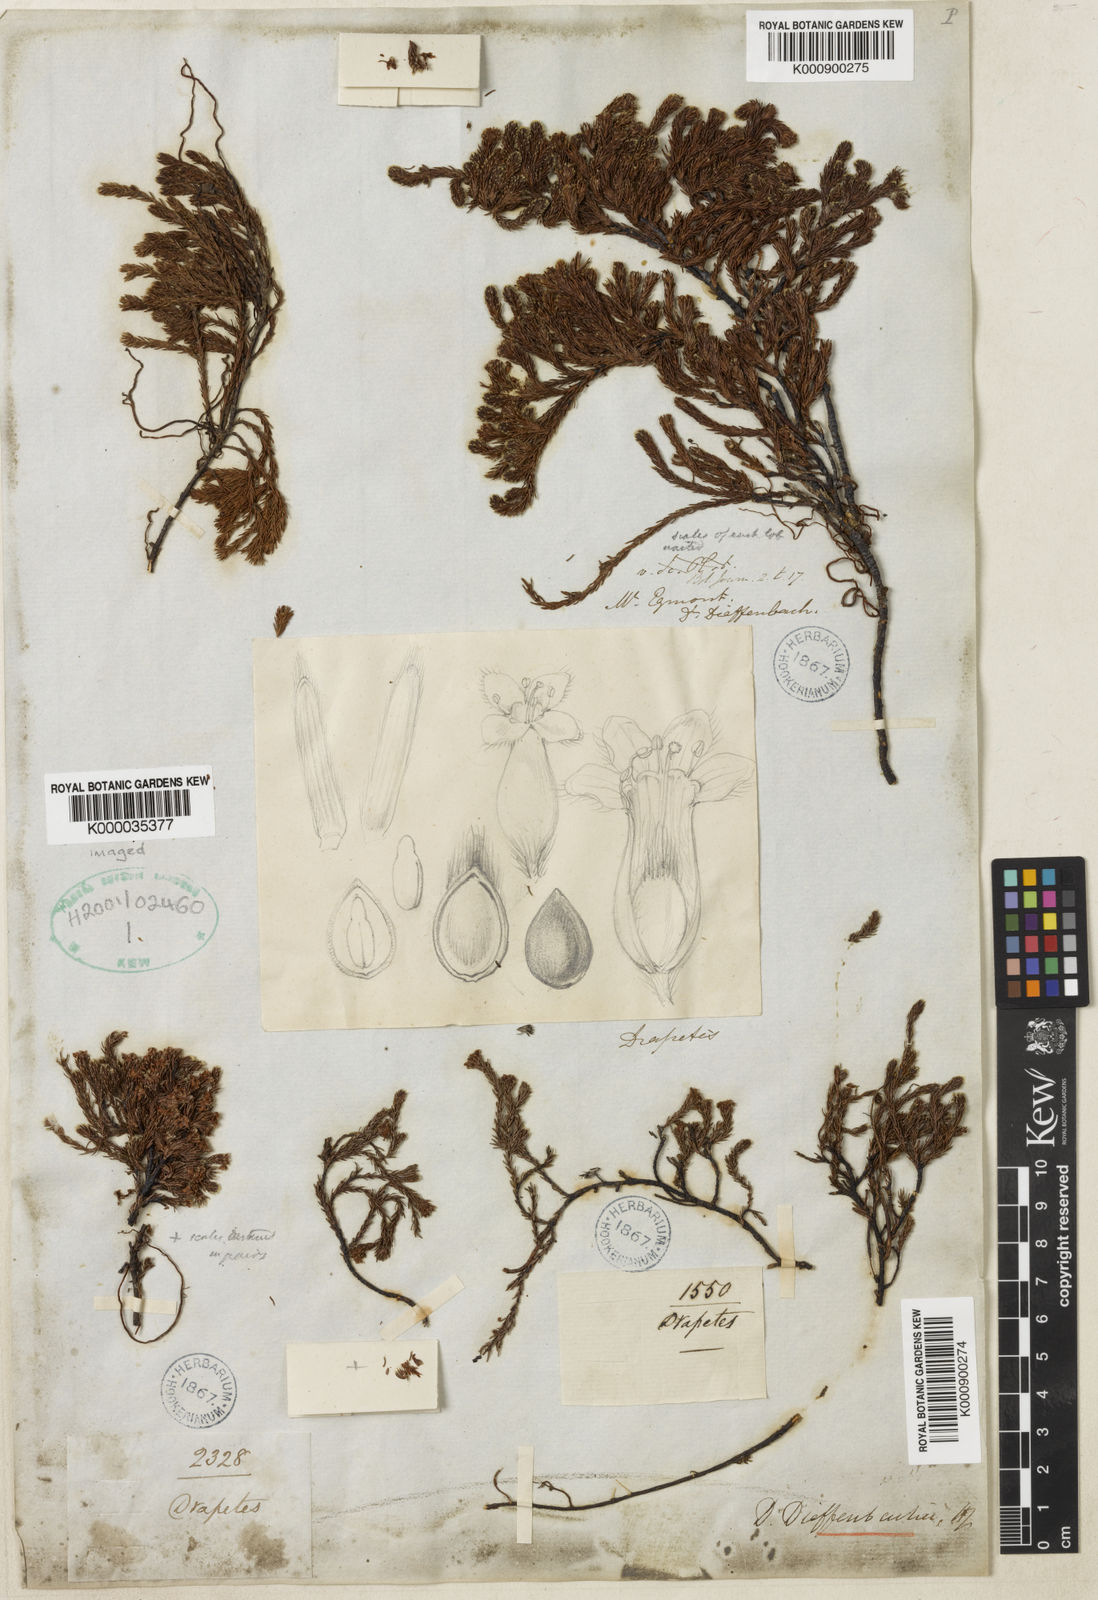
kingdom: Plantae
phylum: Tracheophyta
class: Magnoliopsida
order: Malvales
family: Thymelaeaceae
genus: Kelleria
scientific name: Kelleria dieffenbachii
